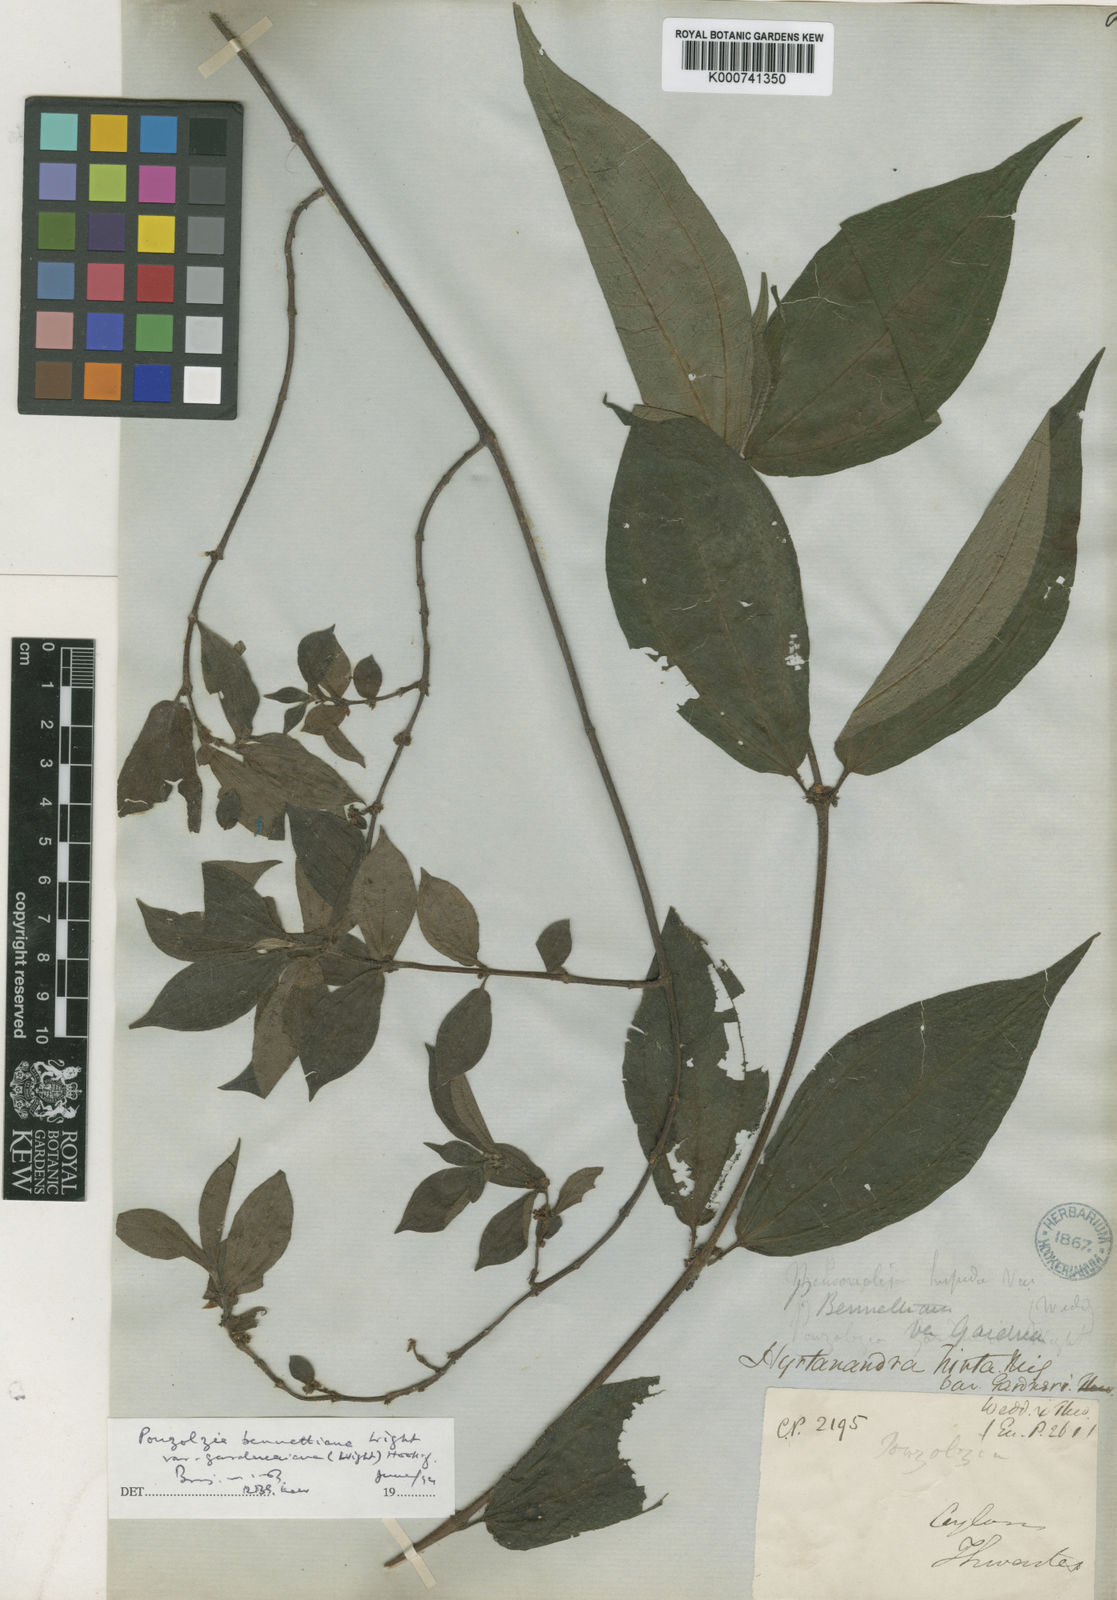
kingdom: Plantae
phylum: Tracheophyta
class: Magnoliopsida
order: Rosales
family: Urticaceae
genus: Gonostegia
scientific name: Gonostegia triandra
